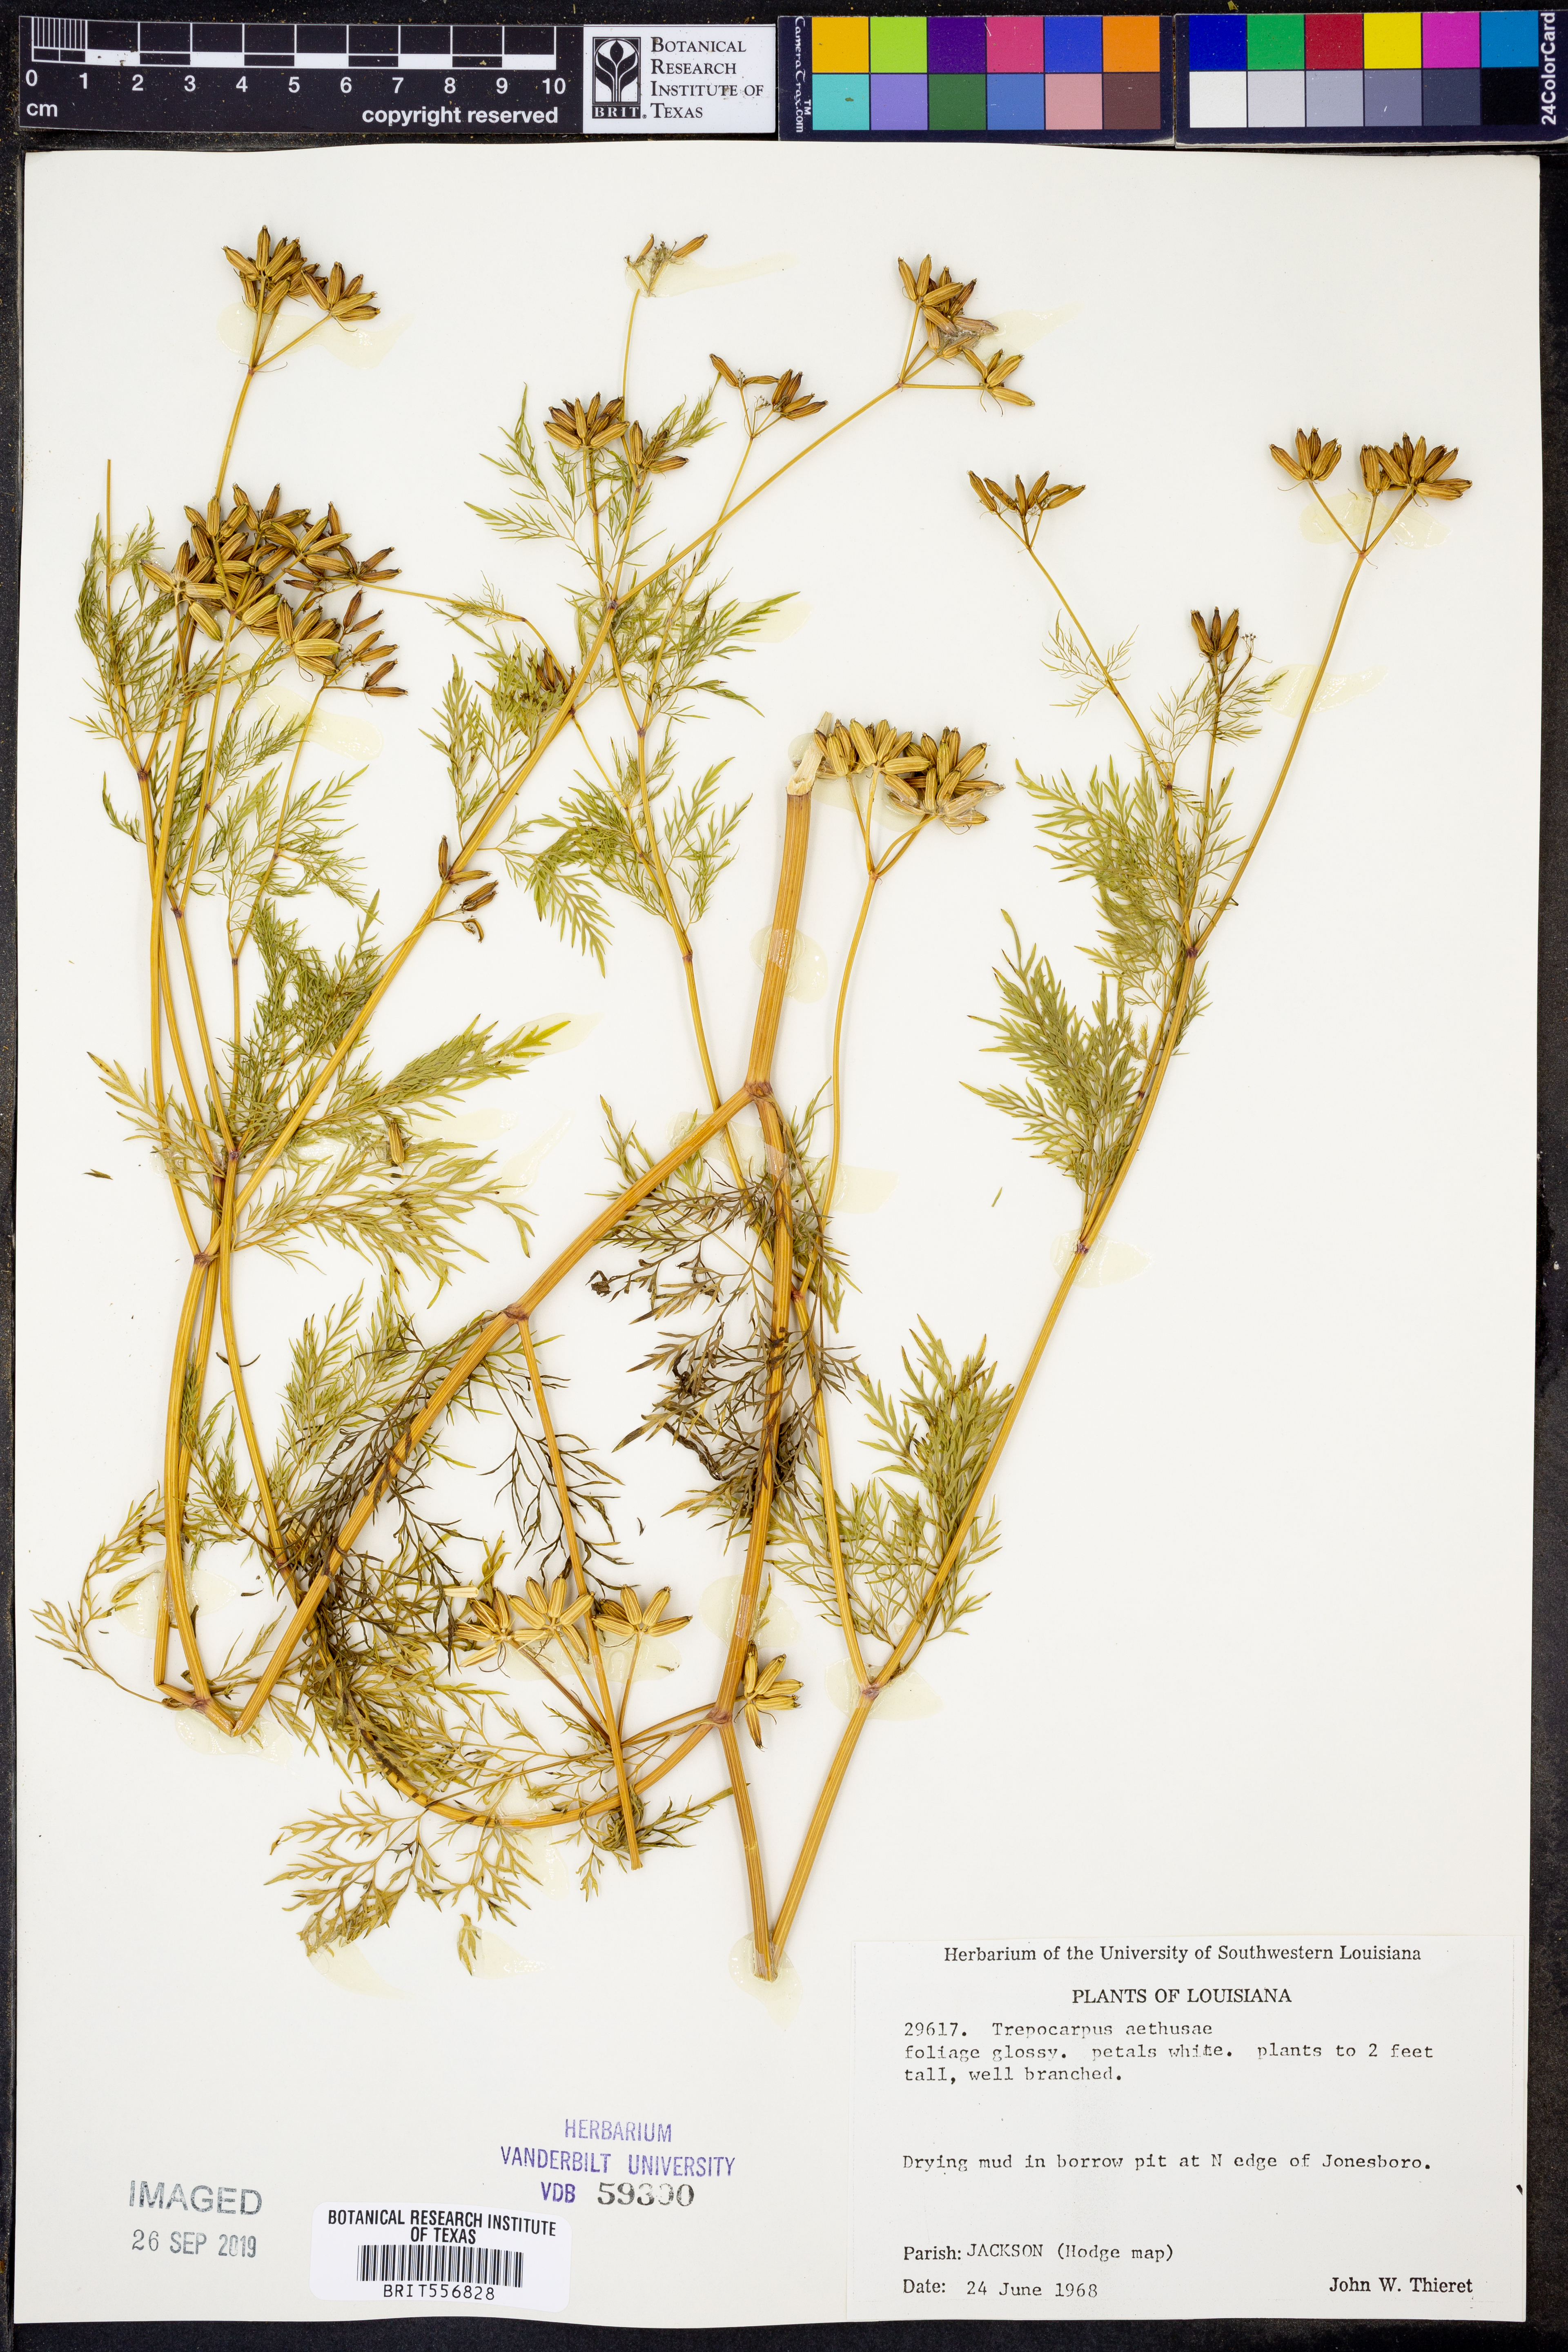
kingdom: Plantae
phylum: Tracheophyta
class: Magnoliopsida
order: Apiales
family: Apiaceae
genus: Trepocarpus
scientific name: Trepocarpus aethusae
